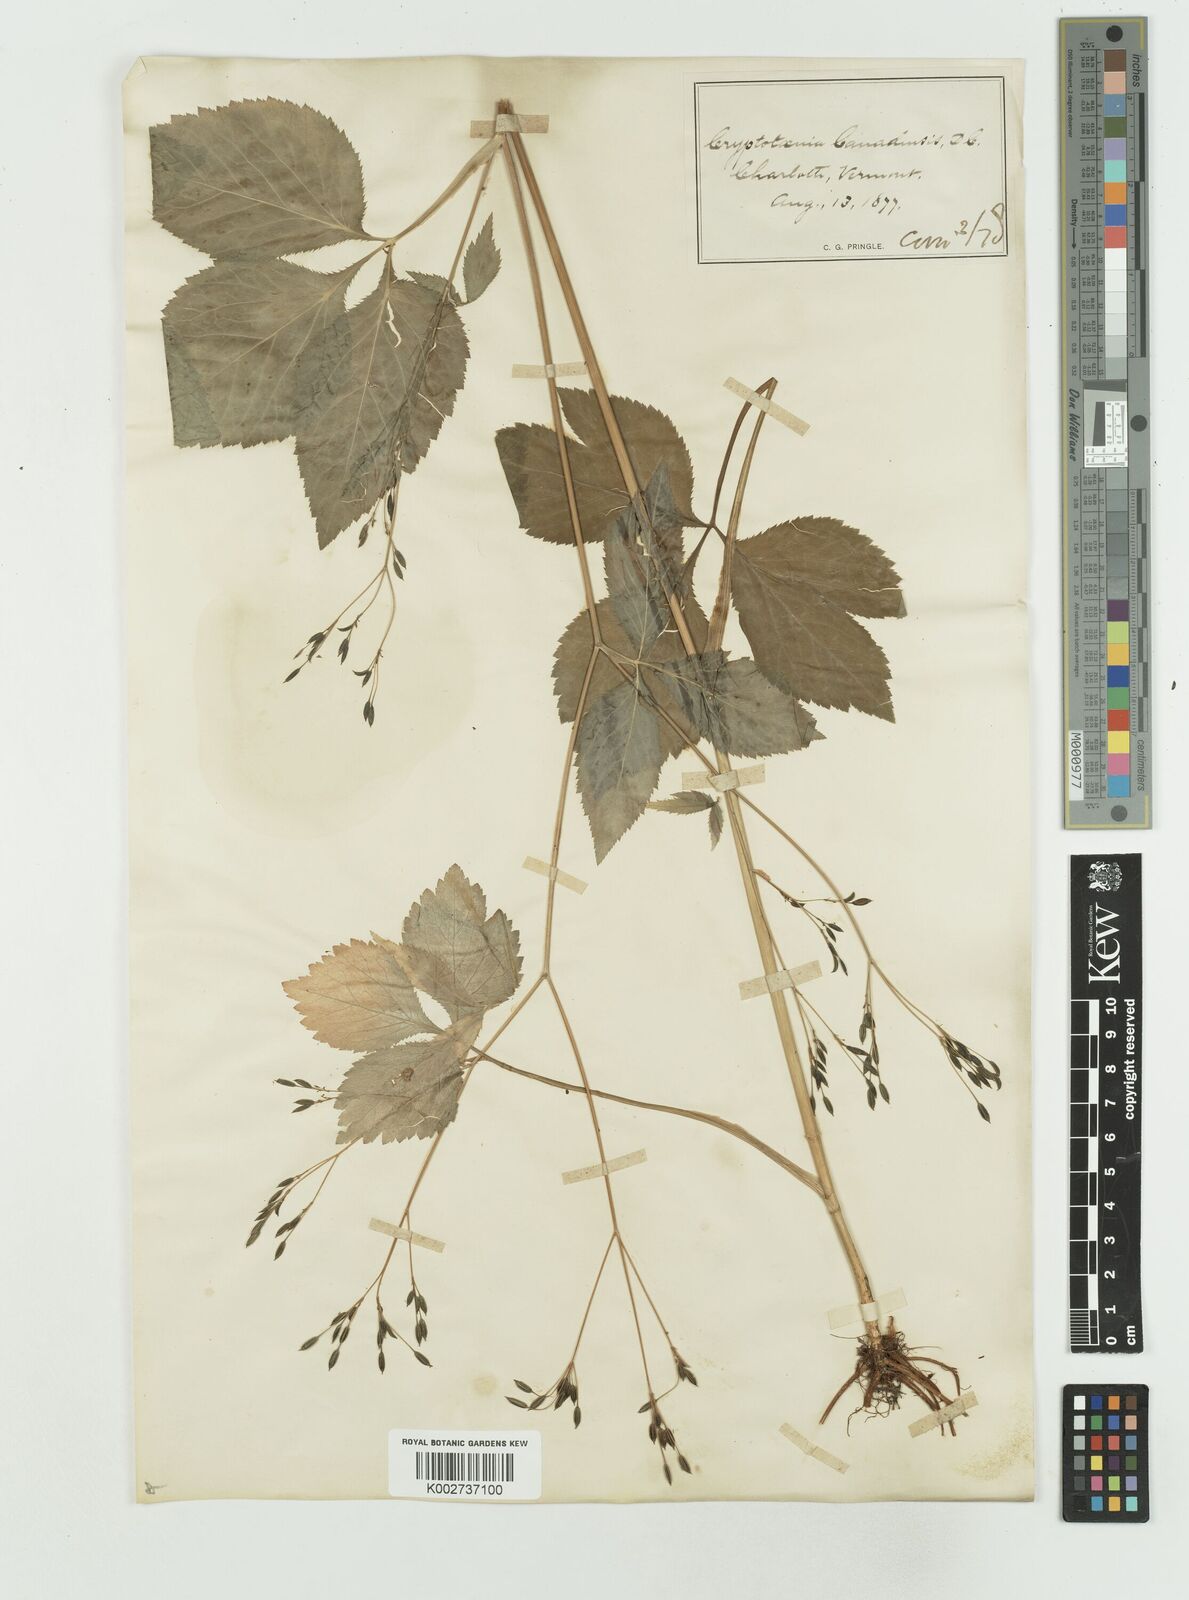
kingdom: Plantae
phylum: Tracheophyta
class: Magnoliopsida
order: Apiales
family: Apiaceae
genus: Cryptotaenia
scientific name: Cryptotaenia
